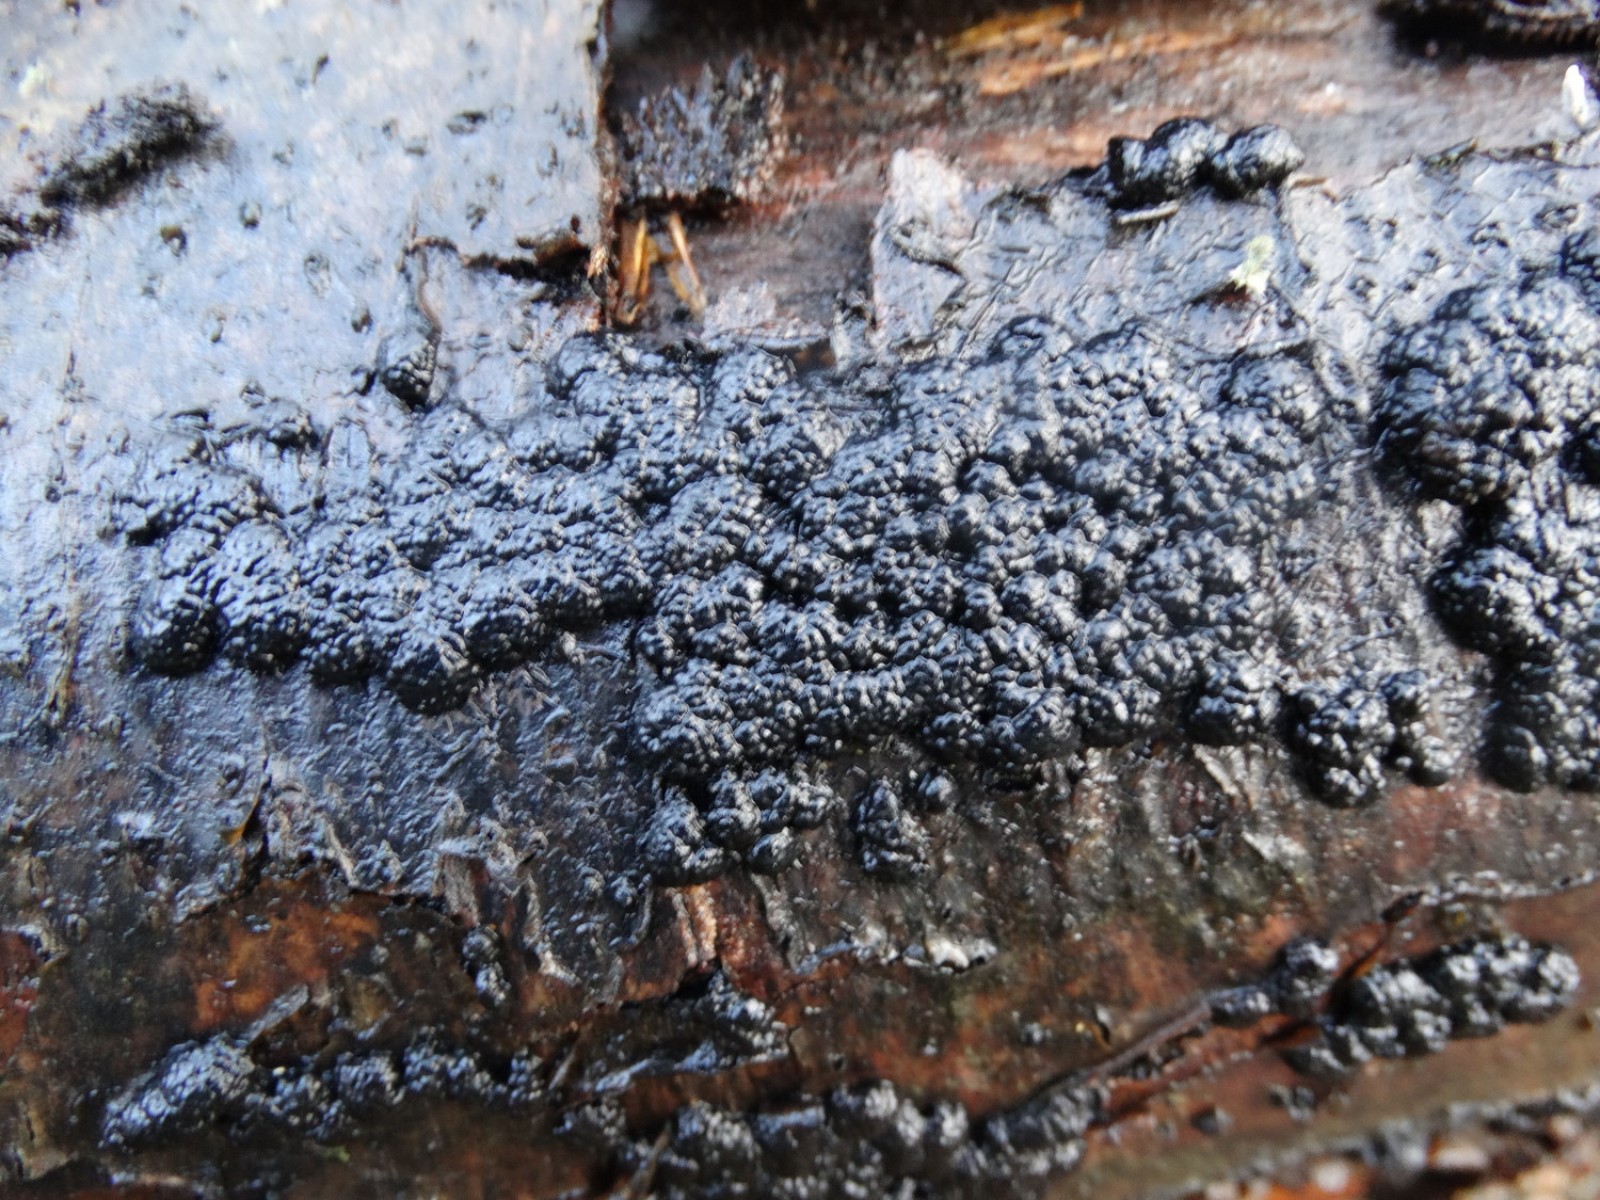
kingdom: Fungi
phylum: Ascomycota
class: Sordariomycetes
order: Xylariales
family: Hypoxylaceae
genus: Jackrogersella
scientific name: Jackrogersella cohaerens
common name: sammenflydende kulbær
